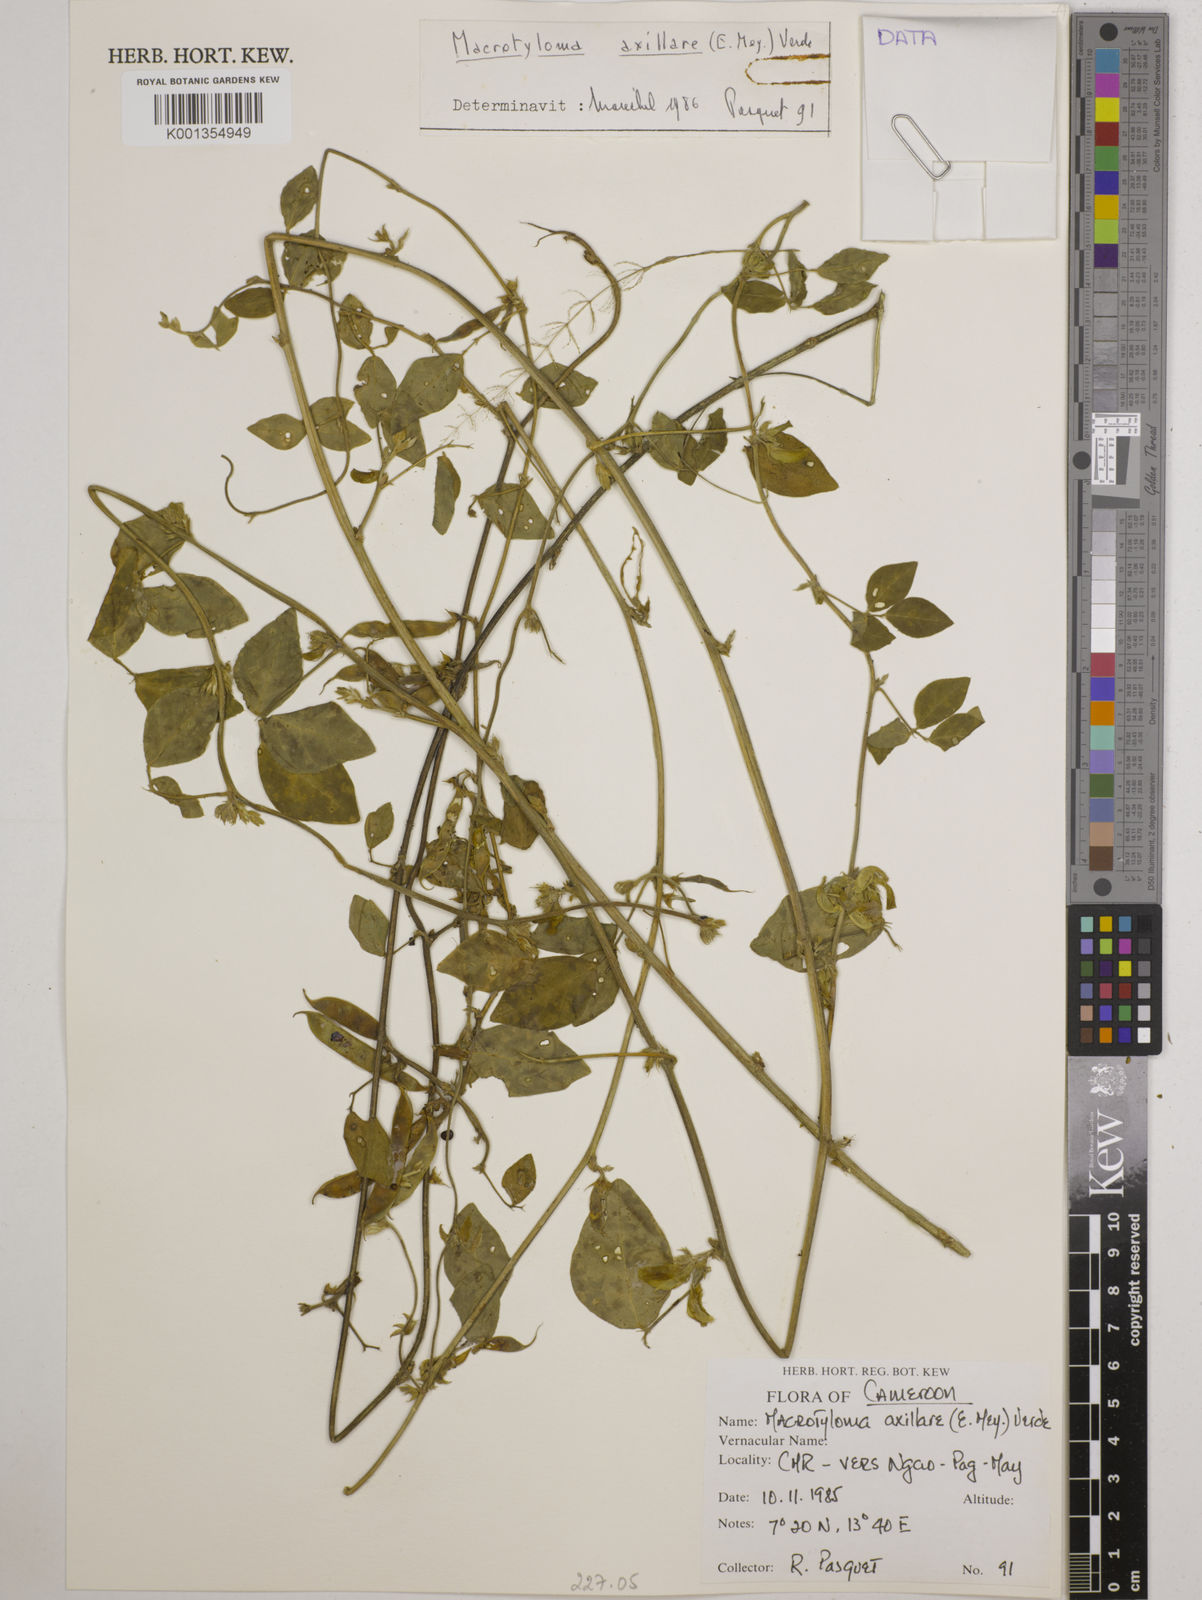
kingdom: Plantae
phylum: Tracheophyta
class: Magnoliopsida
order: Fabales
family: Fabaceae
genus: Macrotyloma
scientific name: Macrotyloma axillare
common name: Perennial horsegram
